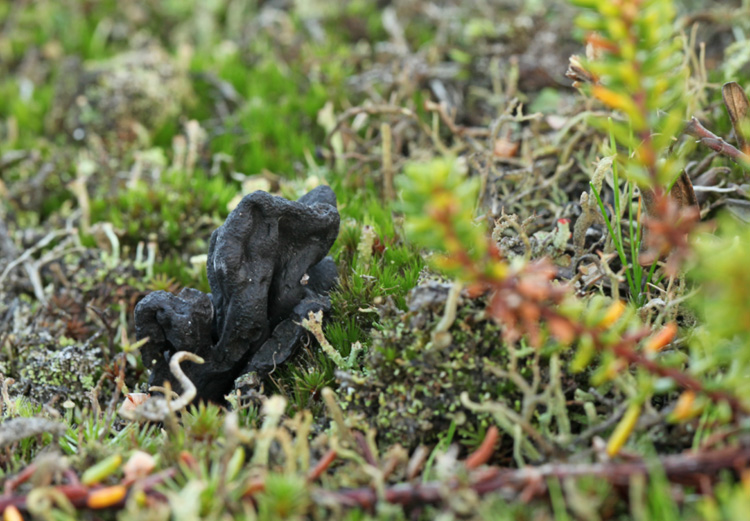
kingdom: Fungi
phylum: Ascomycota
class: Geoglossomycetes
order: Geoglossales
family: Geoglossaceae
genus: Sabuloglossum
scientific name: Sabuloglossum arenarium
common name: klit-jordtunge
